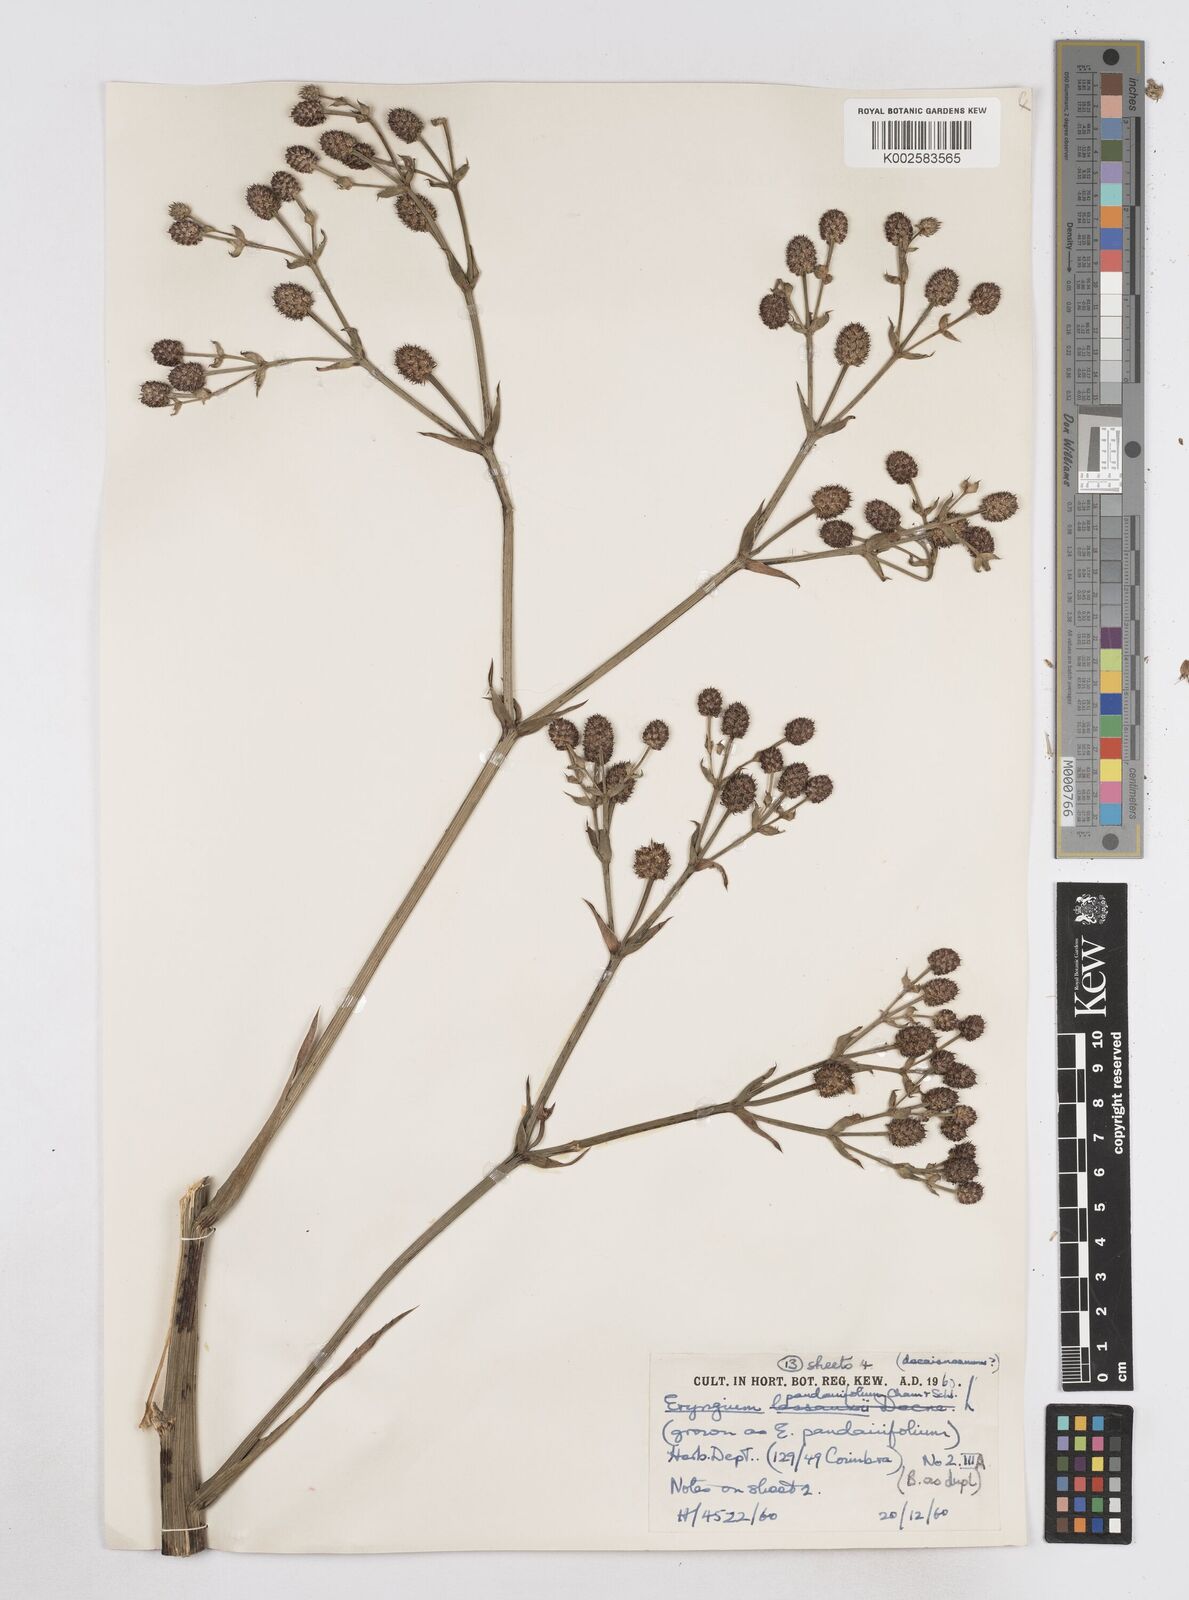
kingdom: Plantae
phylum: Tracheophyta
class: Magnoliopsida
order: Apiales
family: Apiaceae
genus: Eryngium
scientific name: Eryngium pandanifolium
